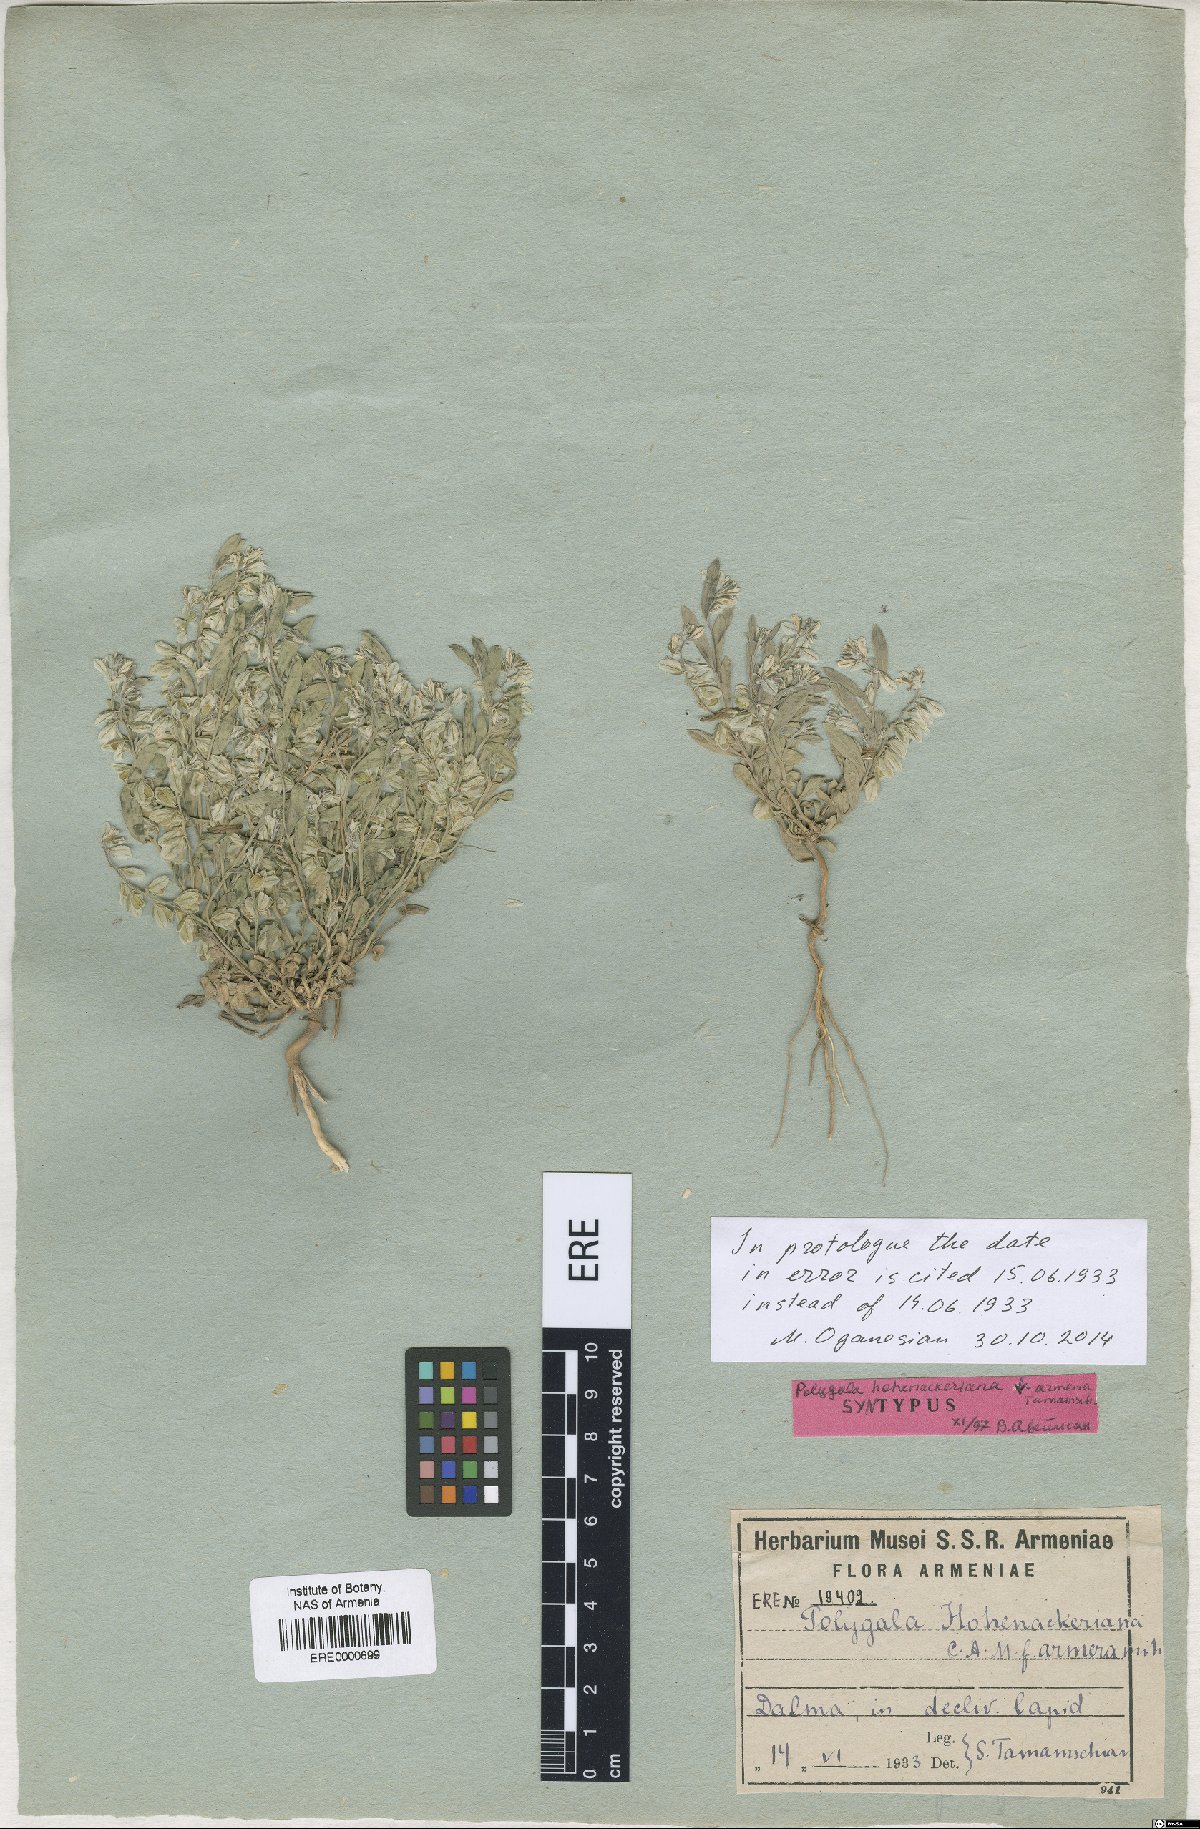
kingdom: Plantae
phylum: Tracheophyta
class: Magnoliopsida
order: Fabales
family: Polygalaceae
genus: Polygala
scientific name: Polygala hohenackeriana
